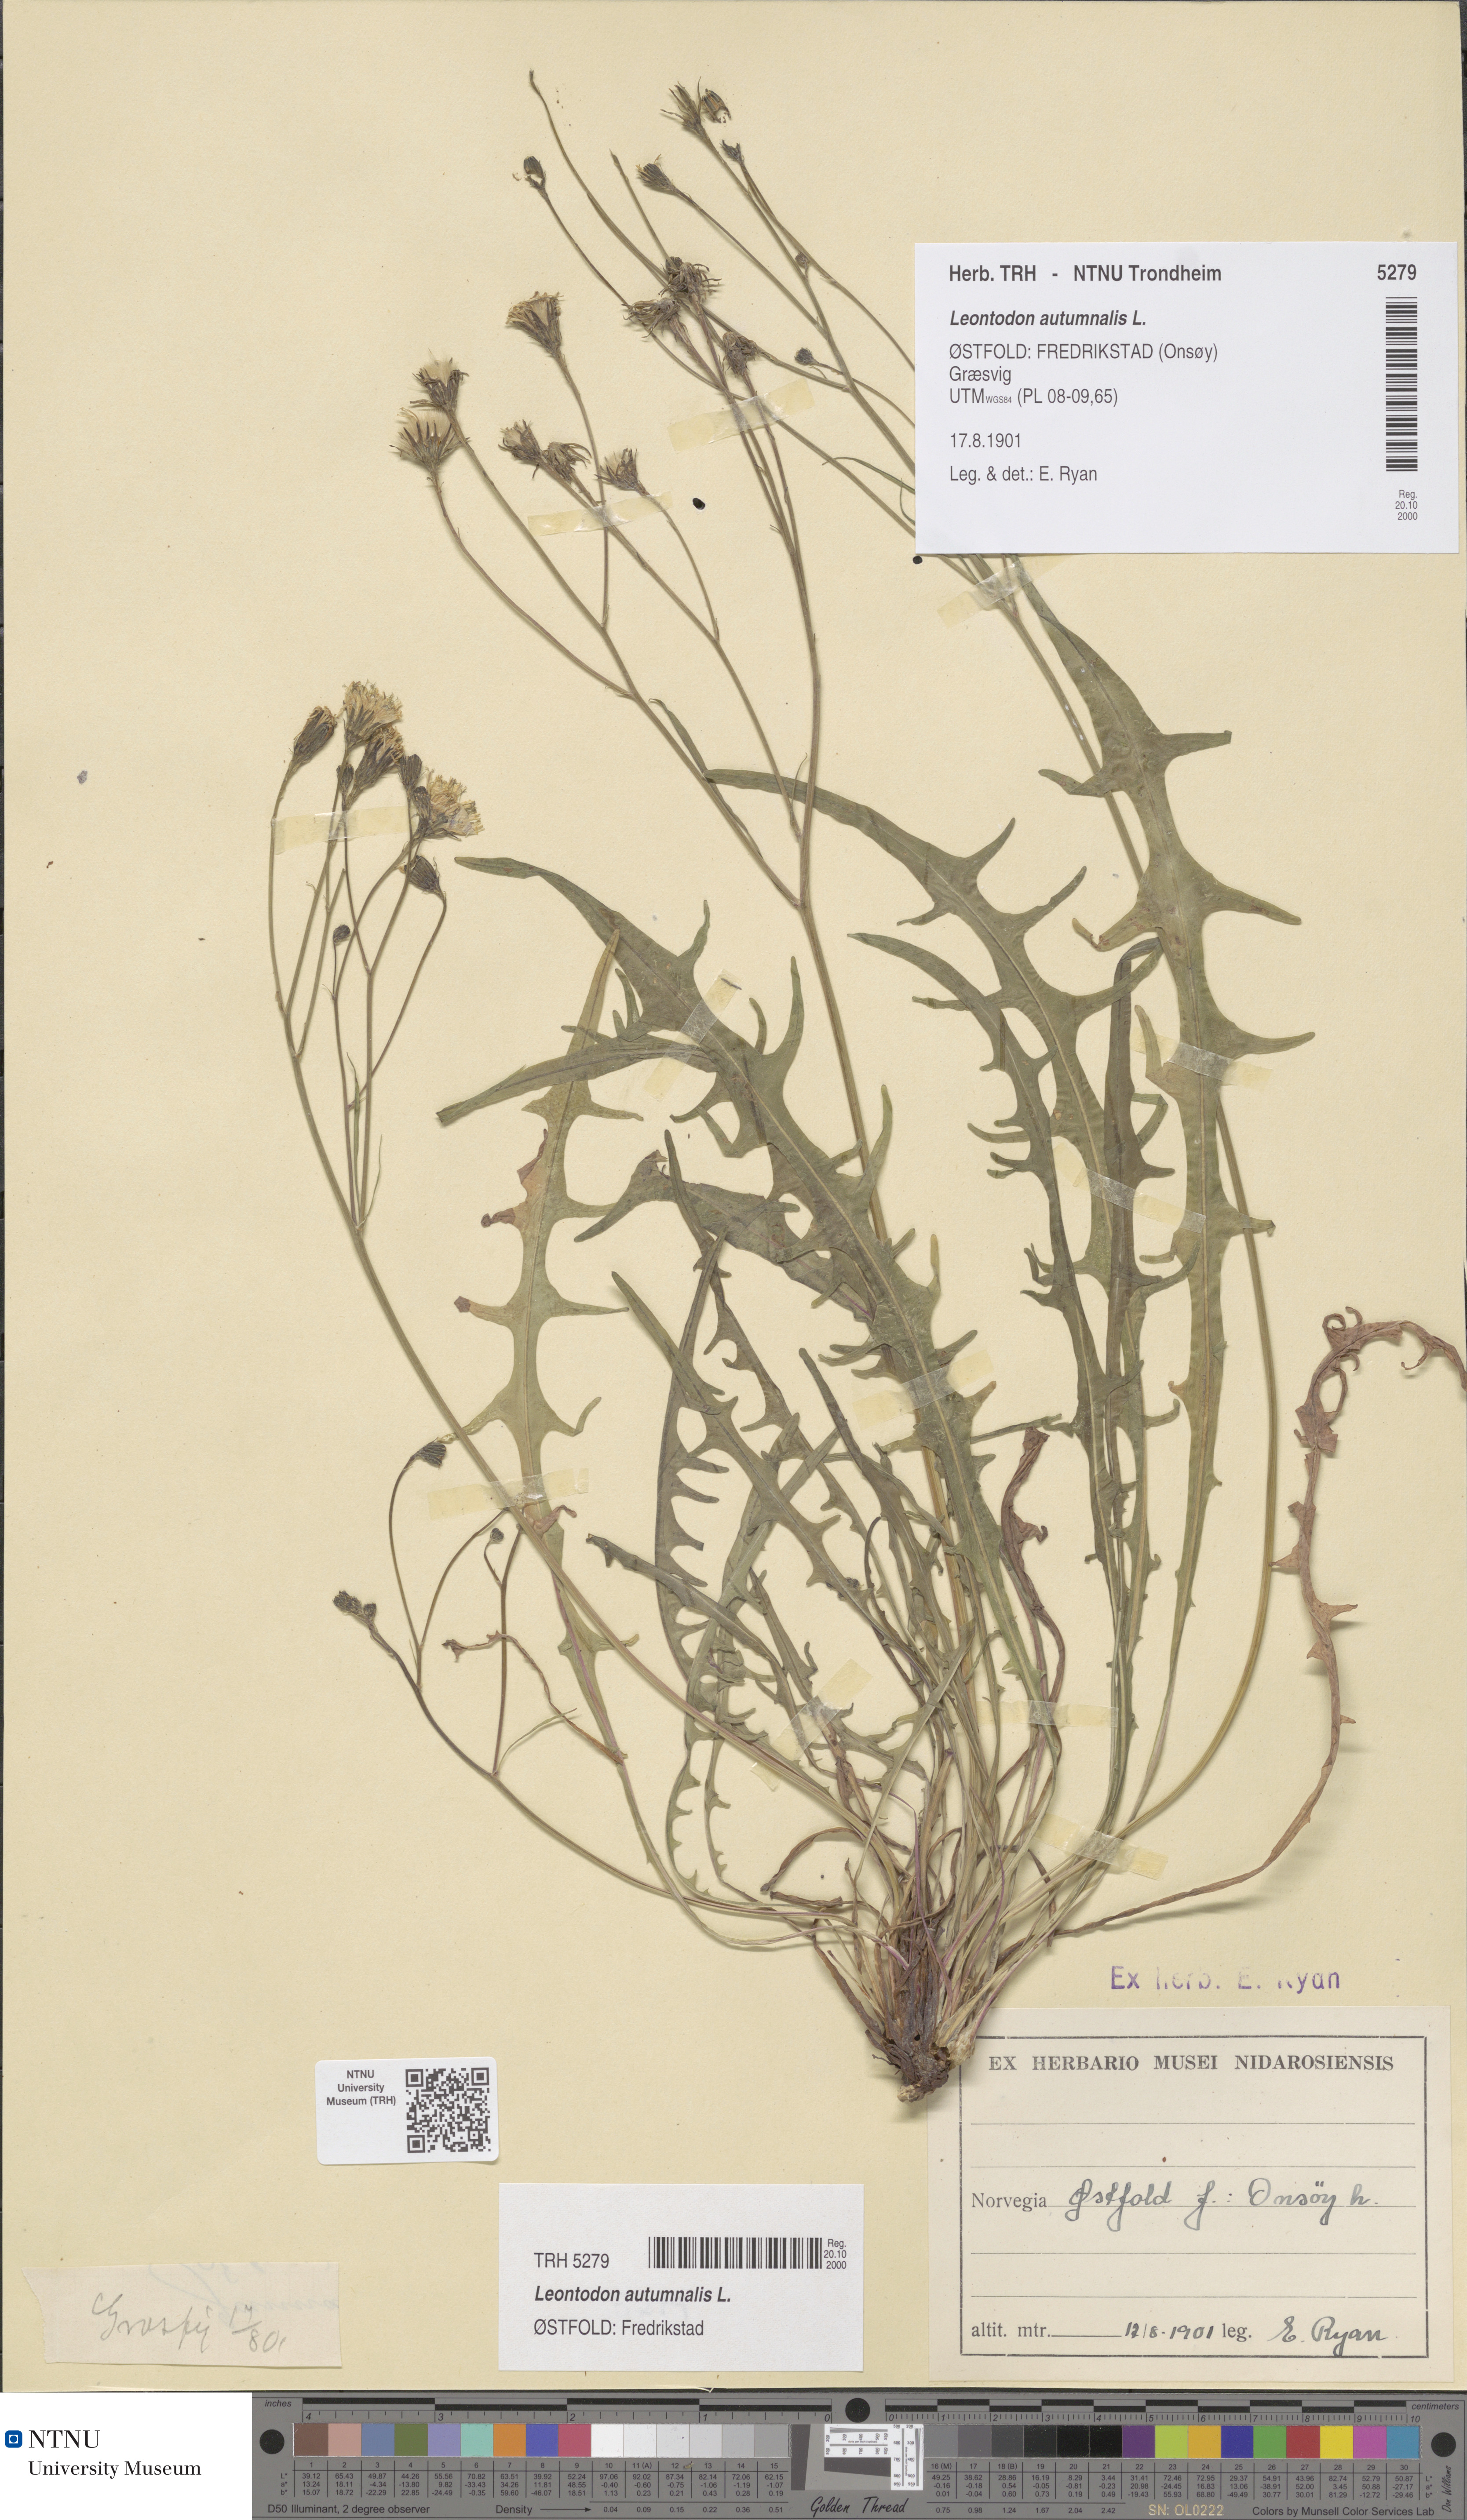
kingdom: Plantae
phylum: Tracheophyta
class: Magnoliopsida
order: Asterales
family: Asteraceae
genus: Scorzoneroides
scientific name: Scorzoneroides autumnalis
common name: Autumn hawkbit
